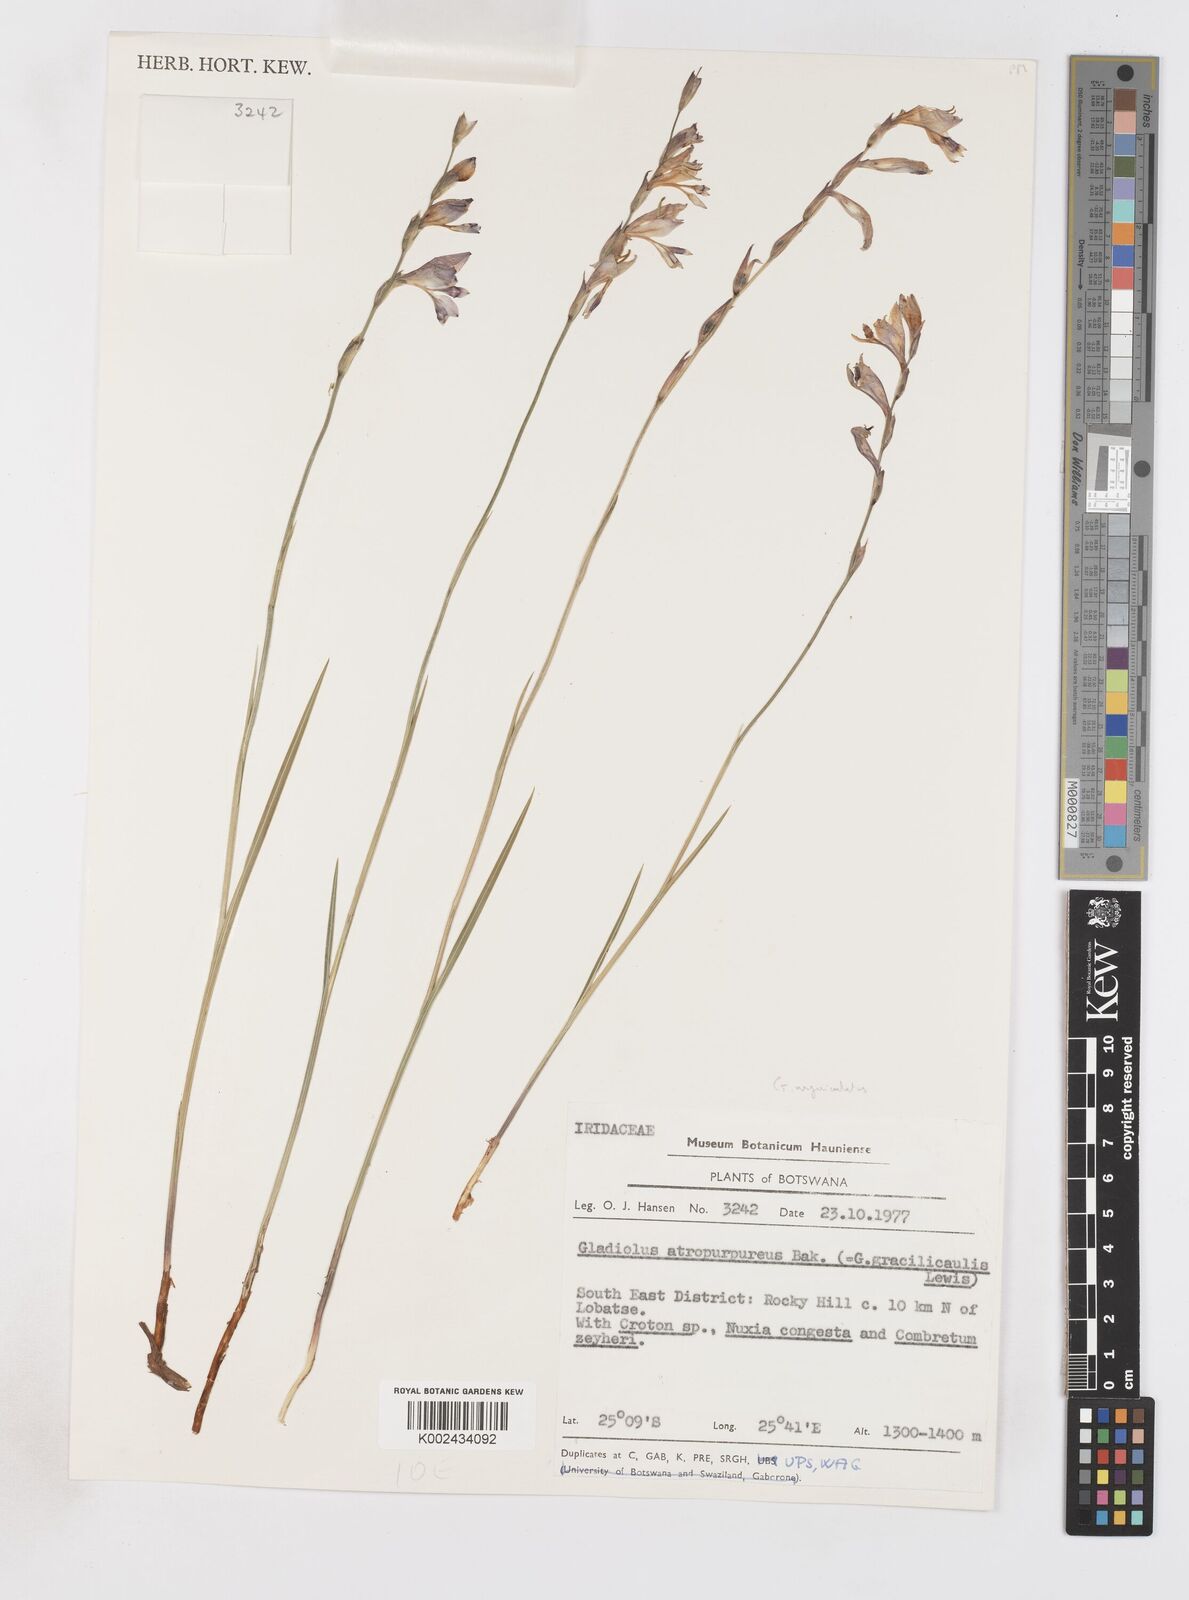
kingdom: Plantae
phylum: Tracheophyta
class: Liliopsida
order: Asparagales
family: Iridaceae
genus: Gladiolus
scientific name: Gladiolus atropurpureus
